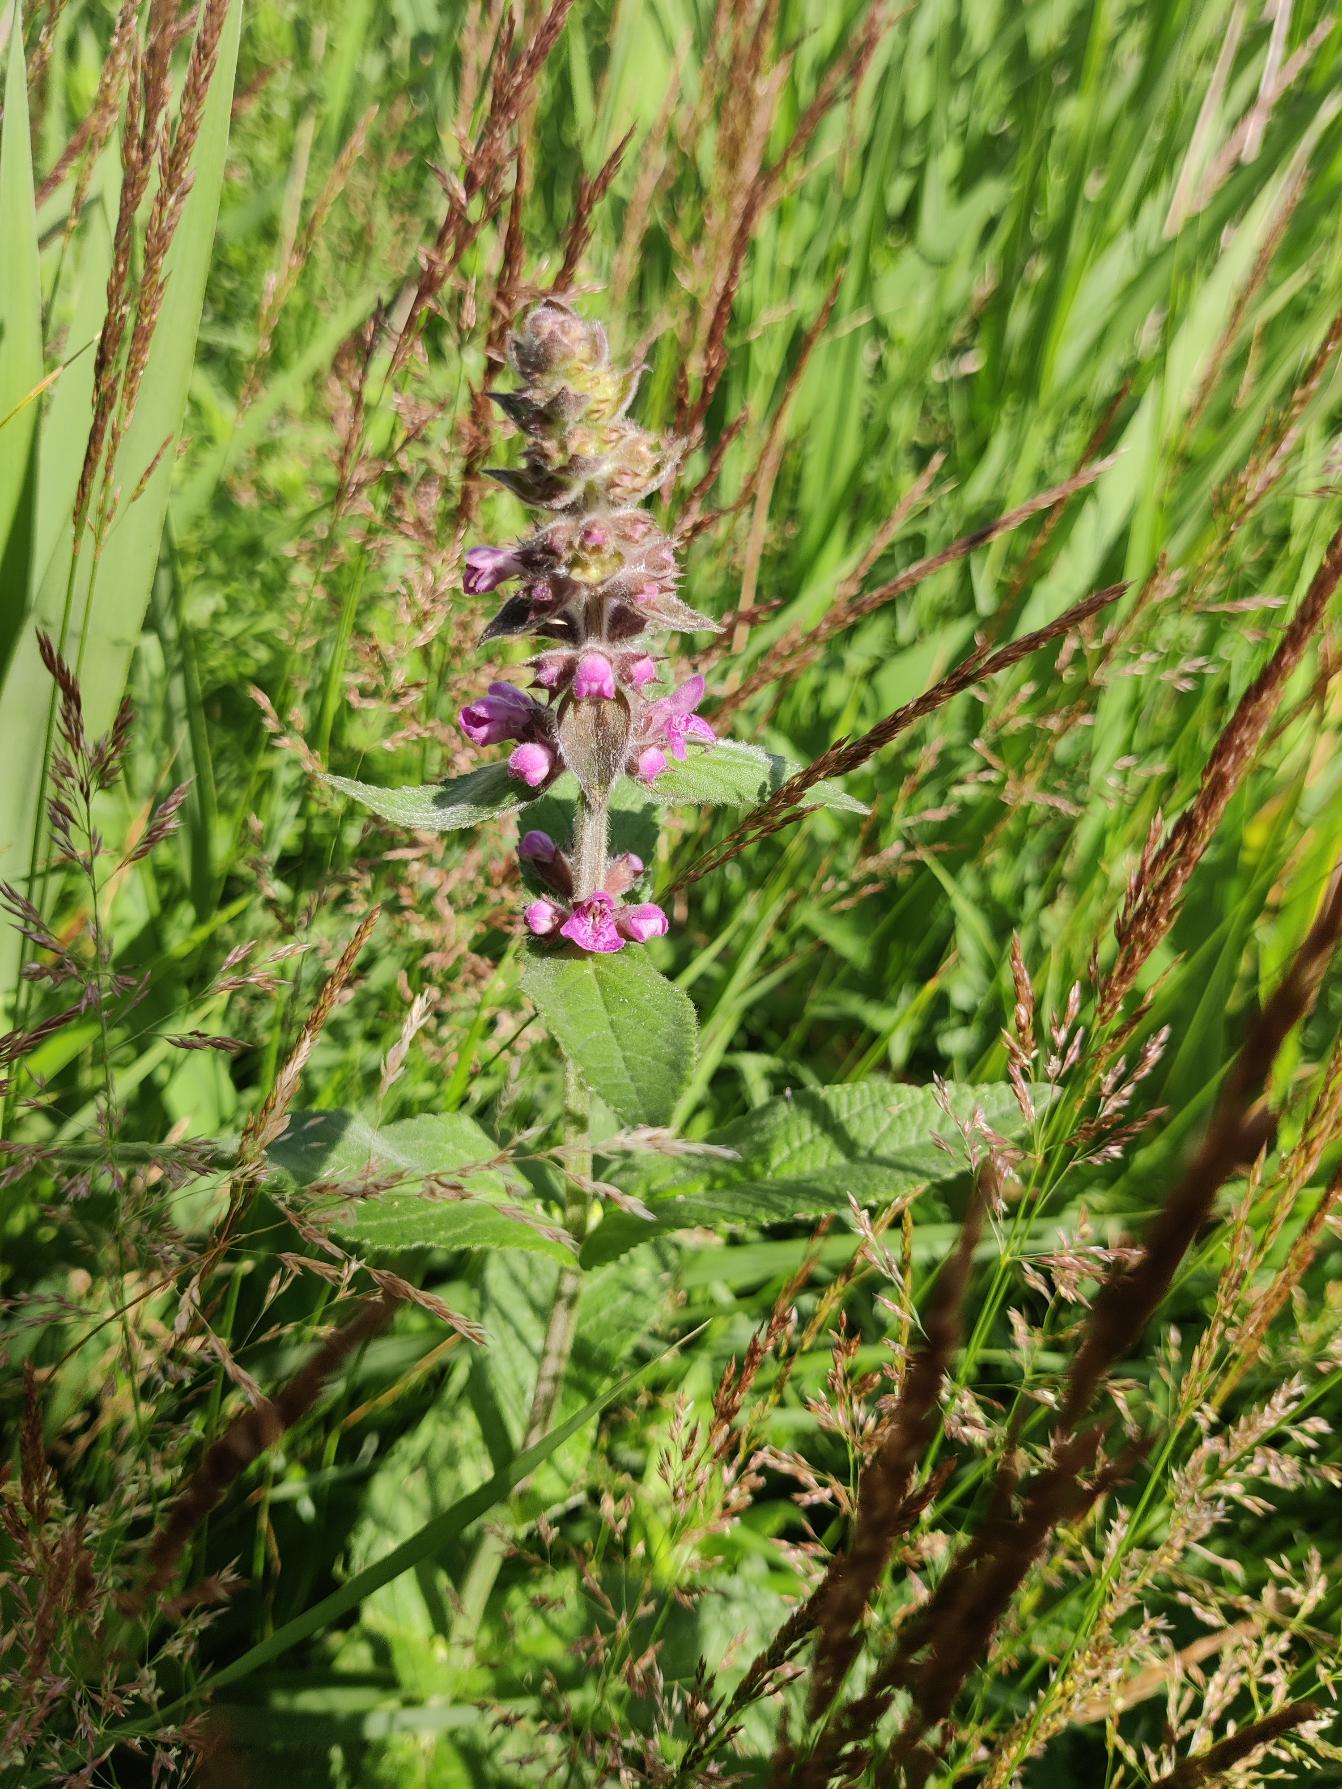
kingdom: Plantae
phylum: Tracheophyta
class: Magnoliopsida
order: Lamiales
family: Lamiaceae
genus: Stachys
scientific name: Stachys palustris
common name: Kær-galtetand
